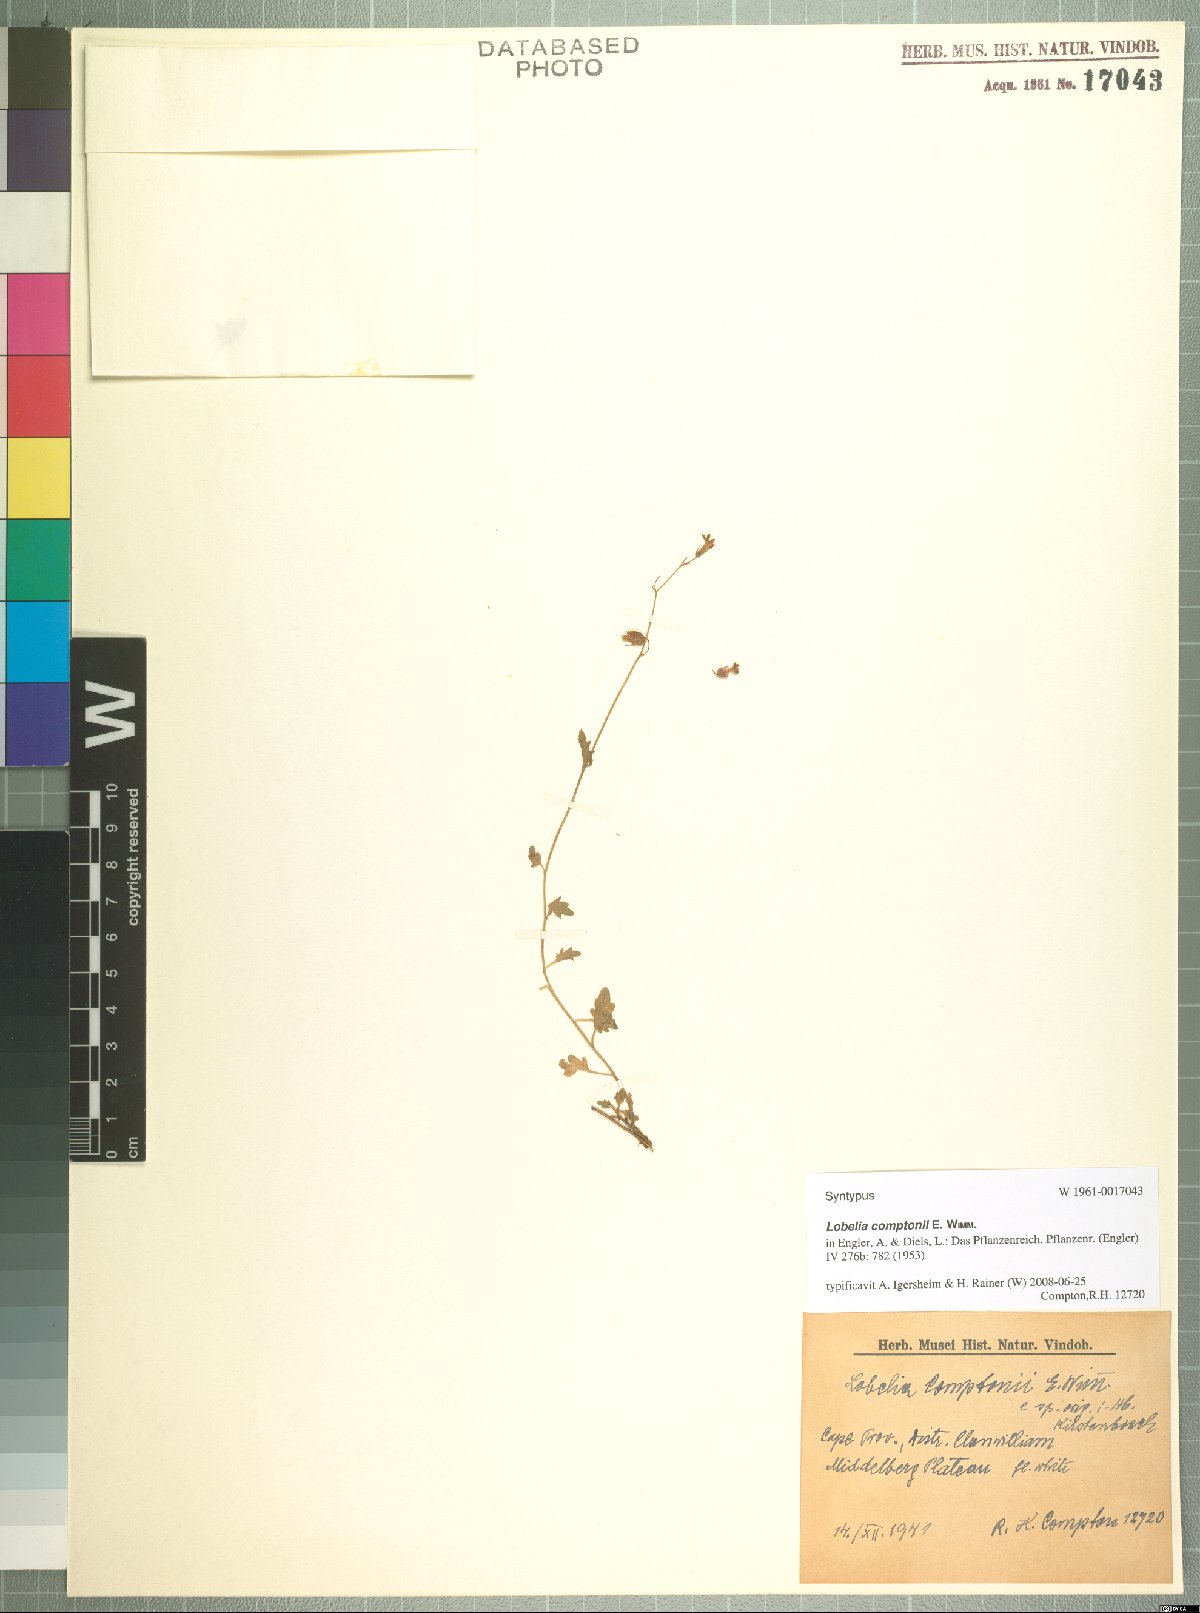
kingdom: Plantae
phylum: Tracheophyta
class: Magnoliopsida
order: Asterales
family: Campanulaceae
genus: Lobelia
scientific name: Lobelia comptonii
